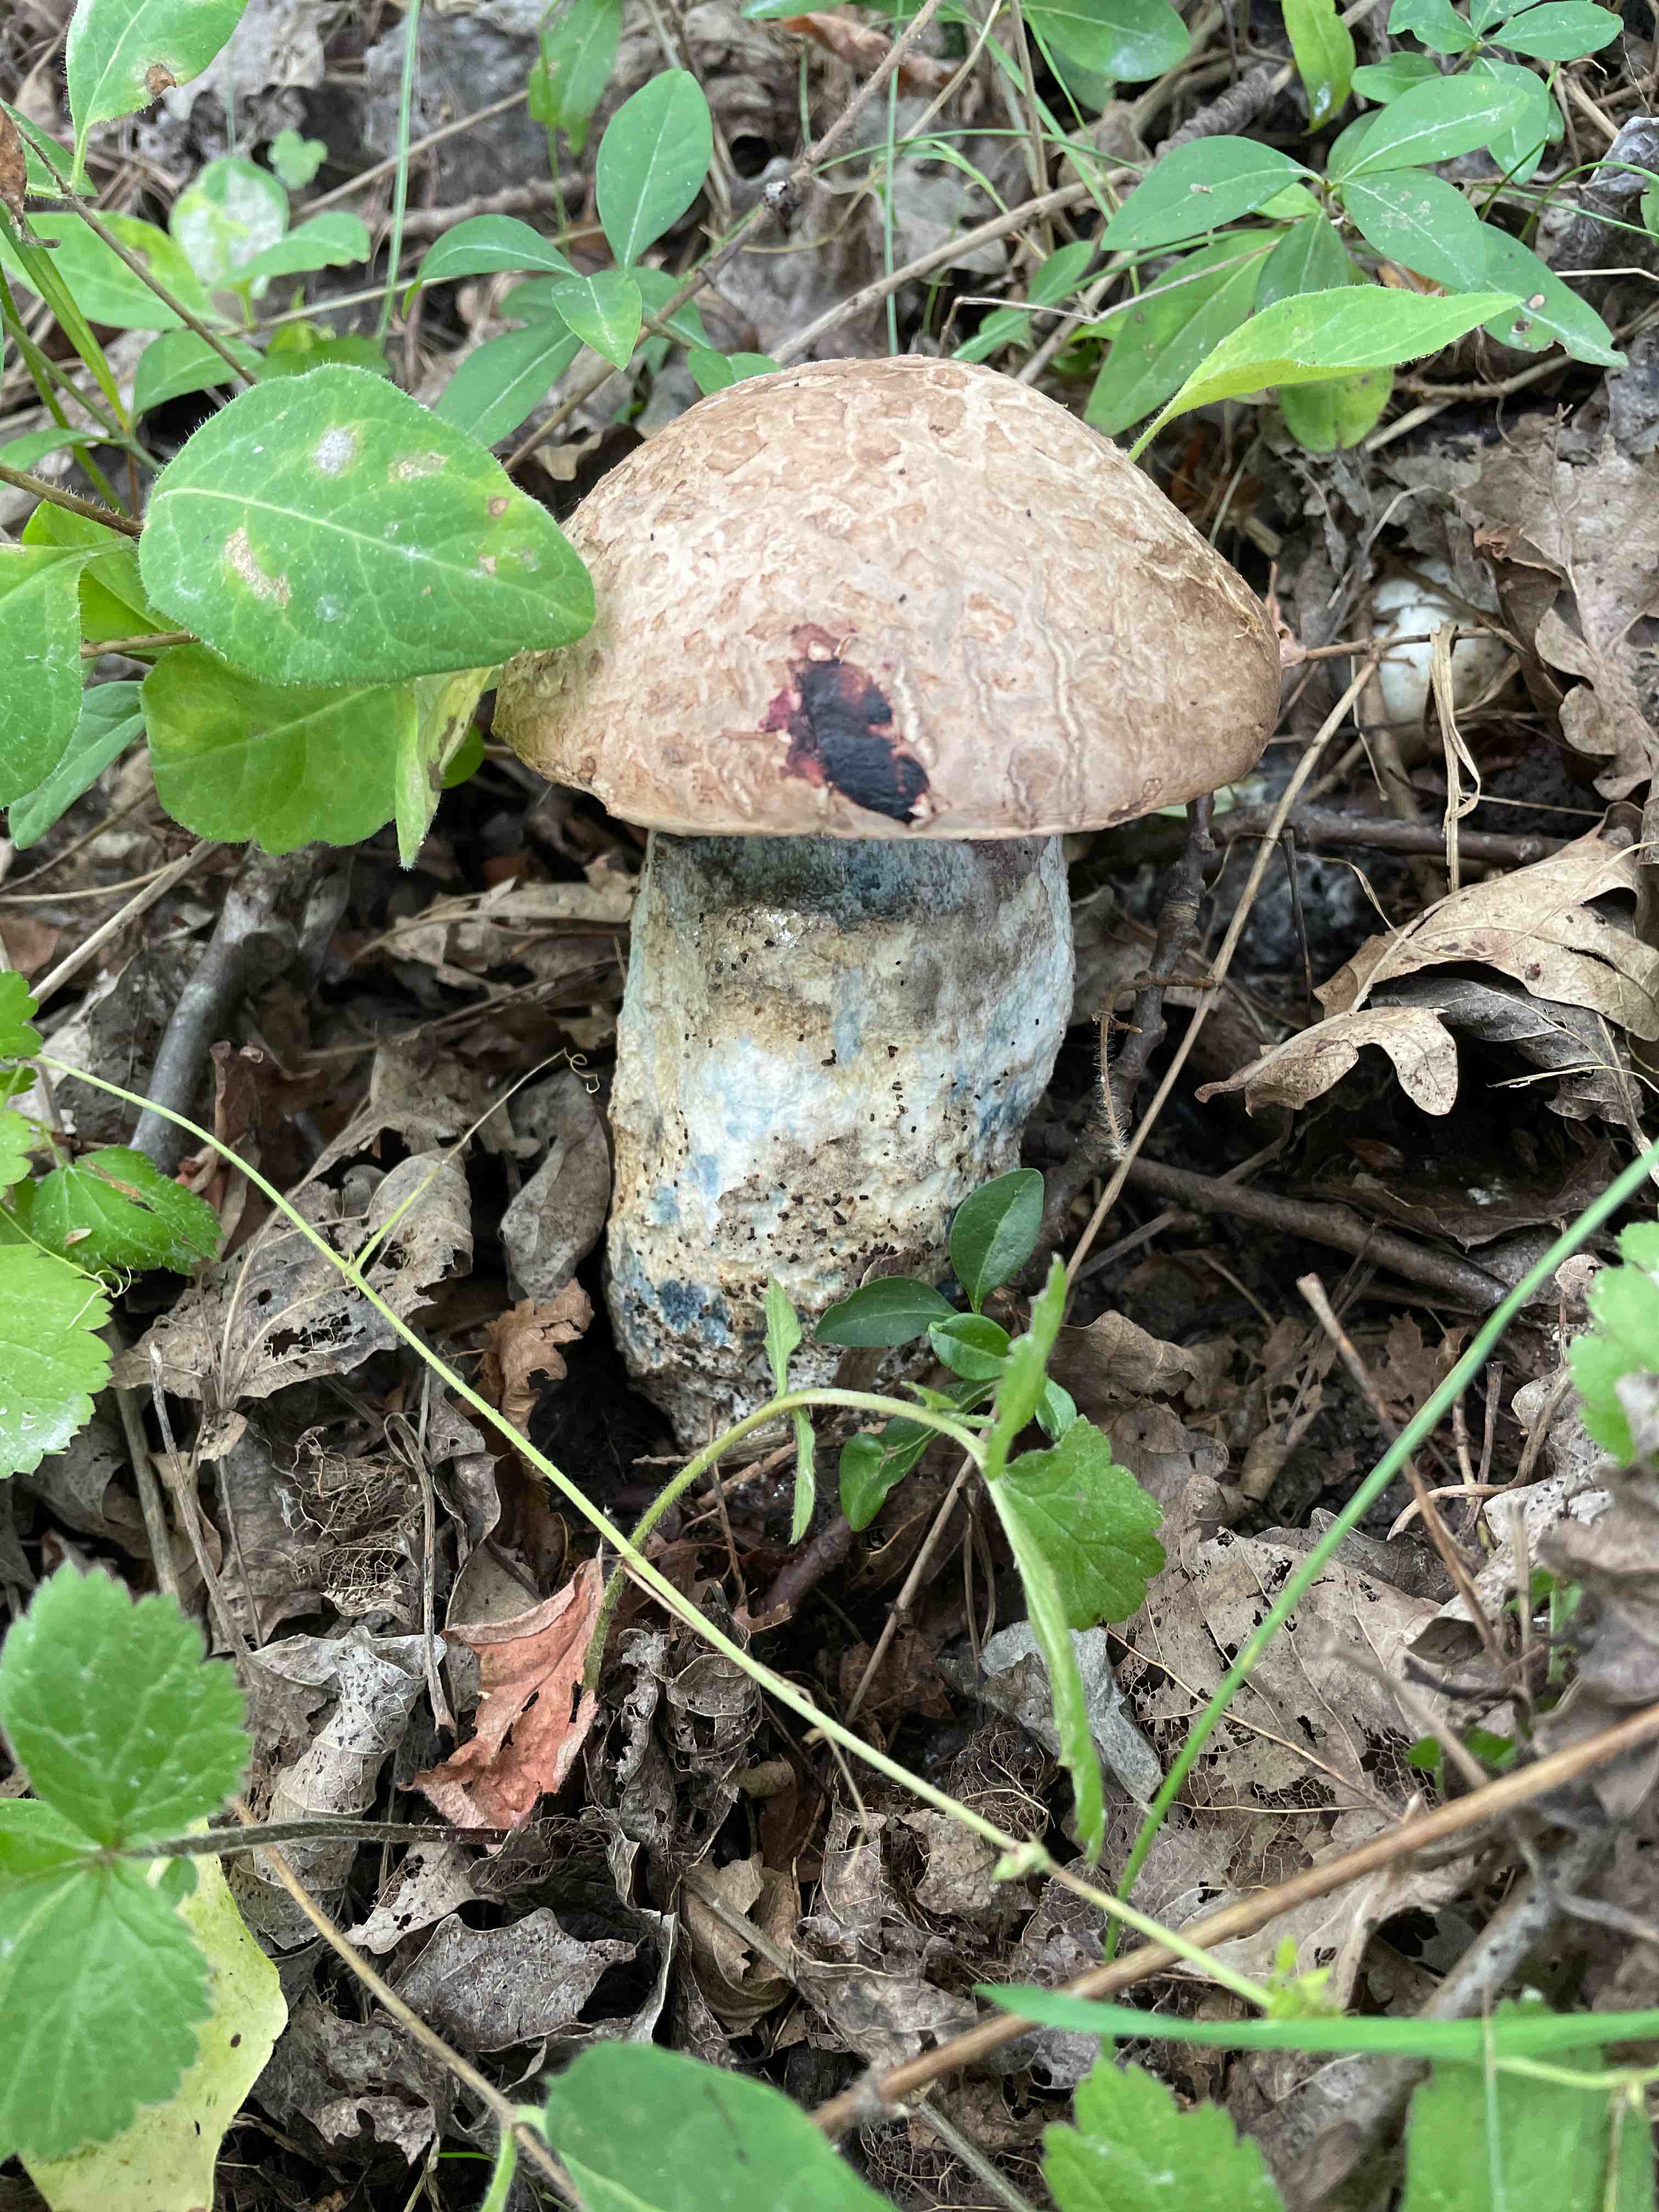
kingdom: Fungi
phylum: Basidiomycota
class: Agaricomycetes
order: Boletales
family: Boletaceae
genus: Leccinum
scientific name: Leccinum duriusculum
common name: poppel-skælrørhat
